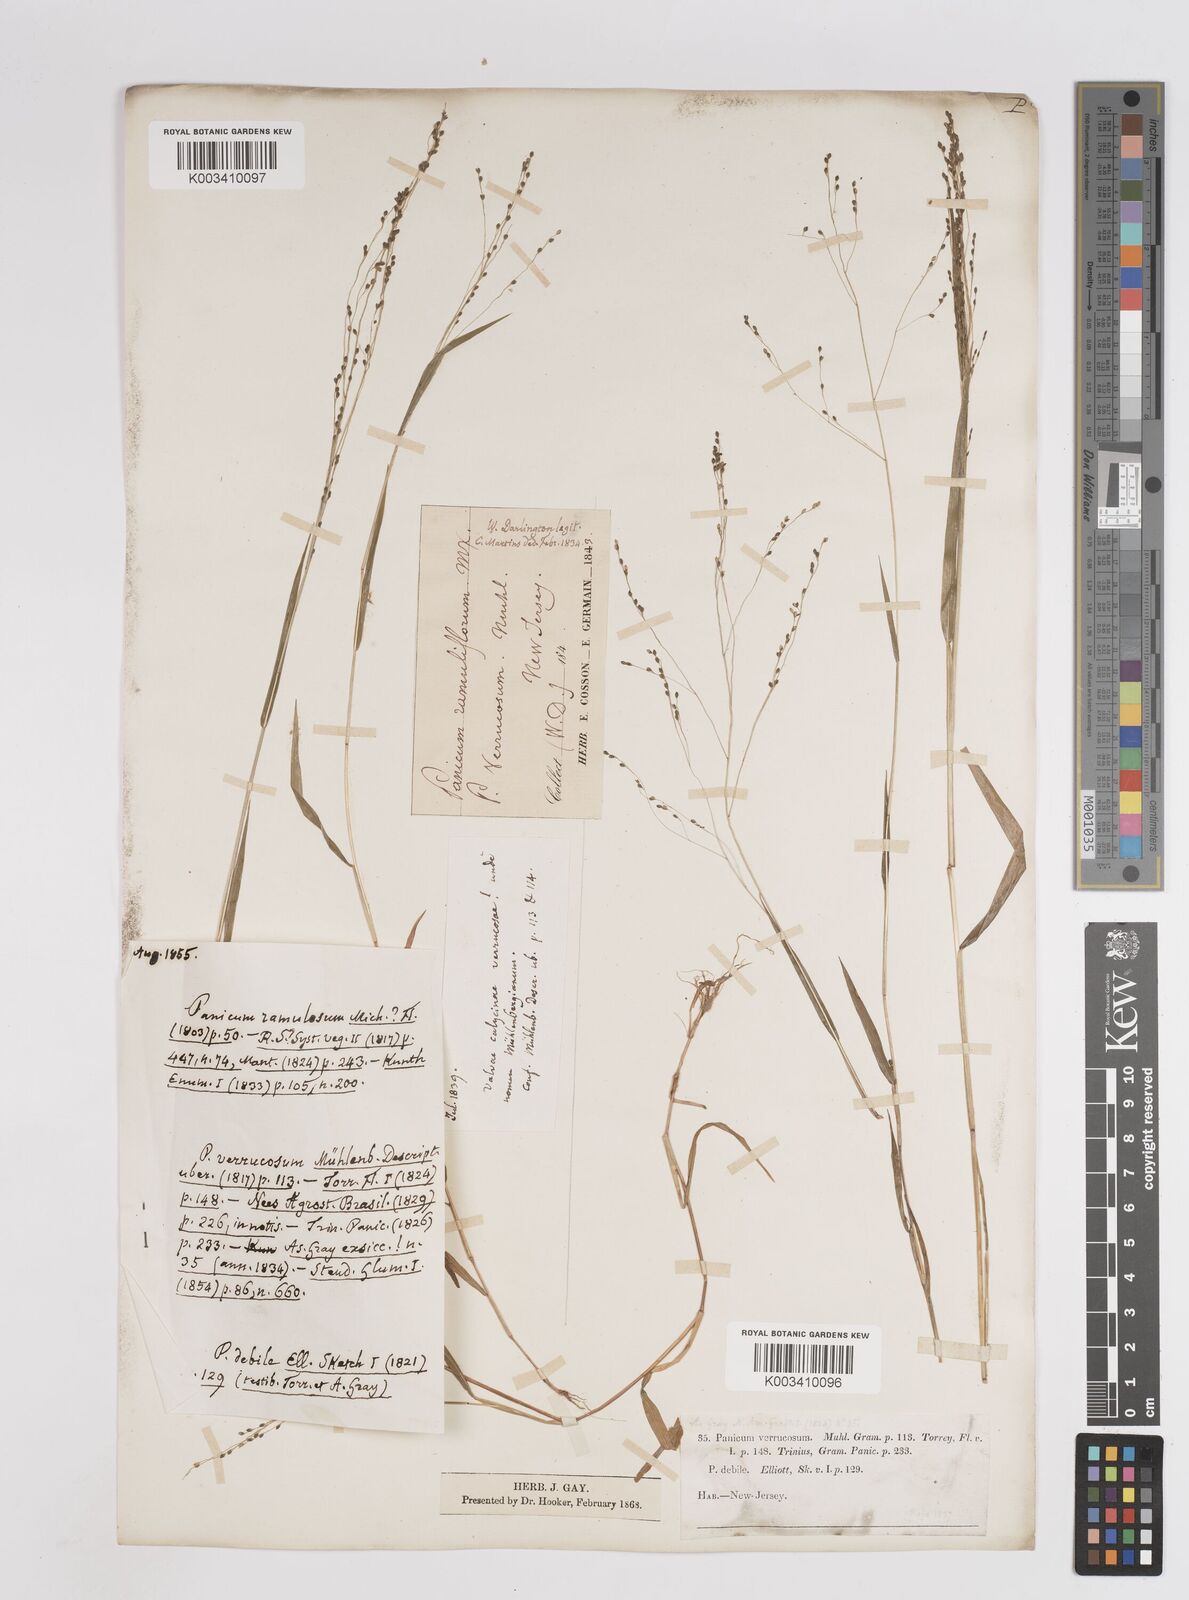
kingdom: Plantae
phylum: Tracheophyta
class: Liliopsida
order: Poales
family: Poaceae
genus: Kellochloa
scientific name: Kellochloa verrucosa
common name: Warty panic grass
